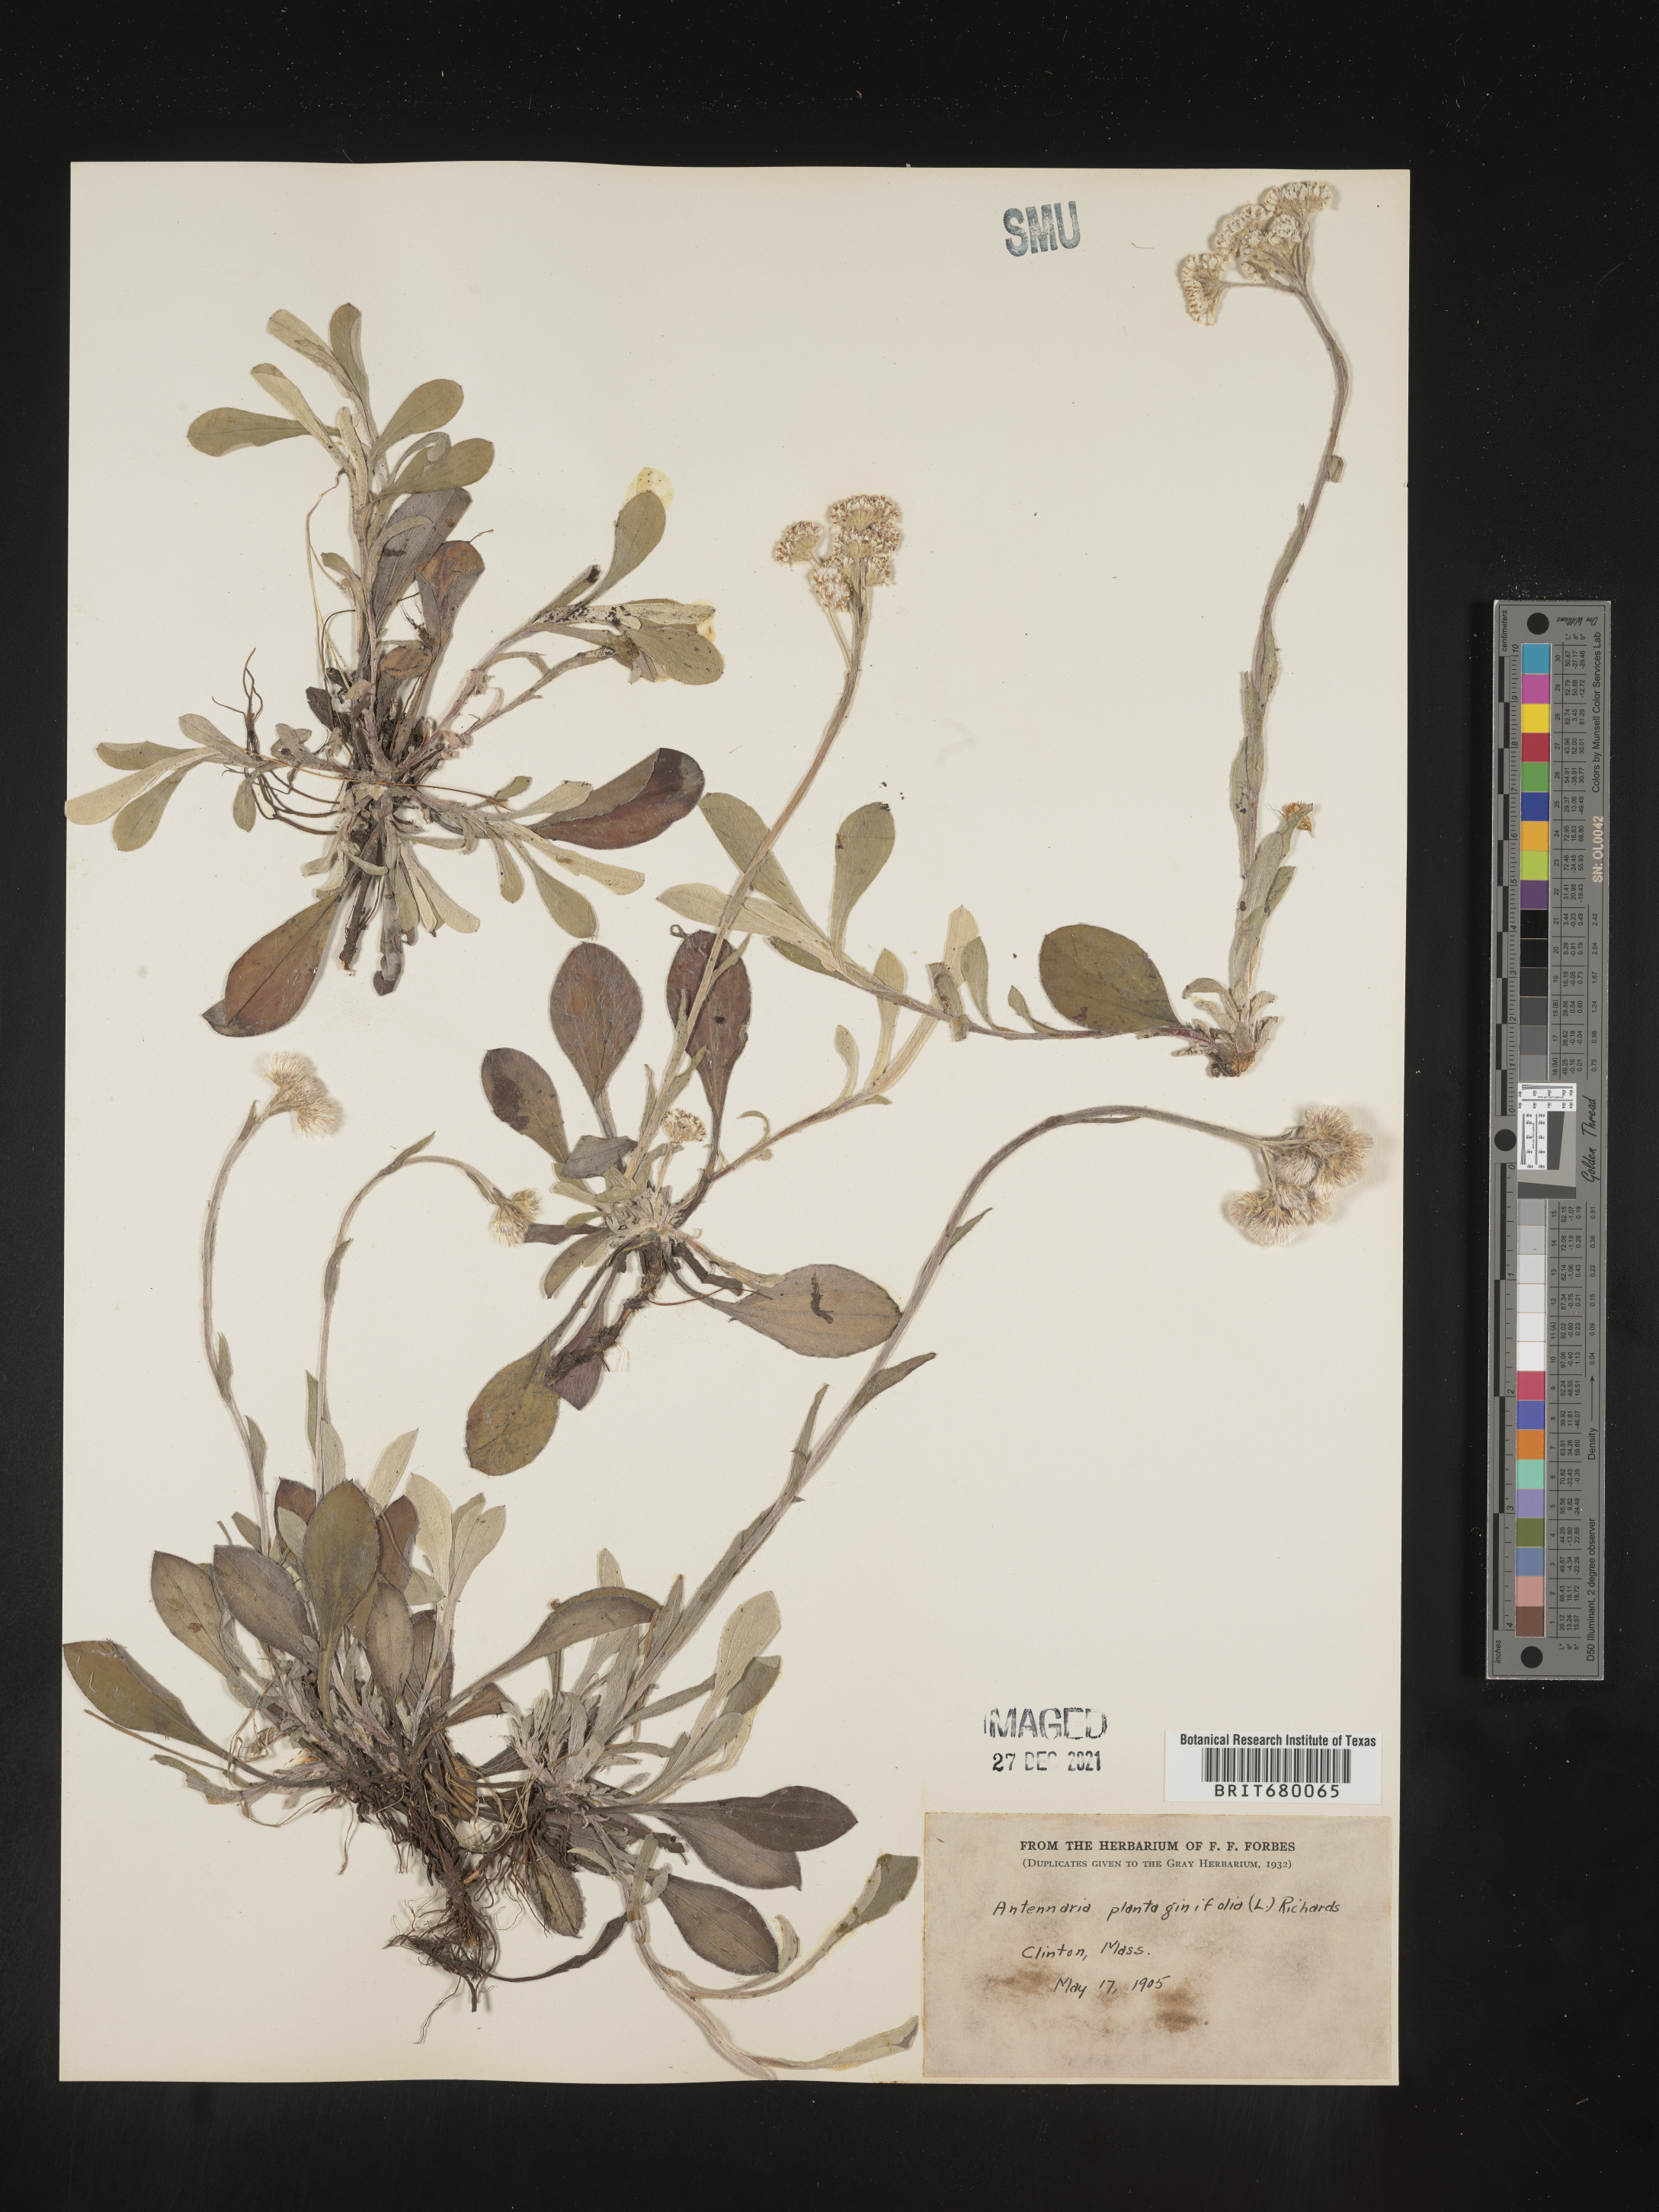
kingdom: Plantae
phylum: Tracheophyta
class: Magnoliopsida
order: Asterales
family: Asteraceae
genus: Antennaria
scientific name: Antennaria plantaginifolia
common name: Plantain-leaved pussytoes
